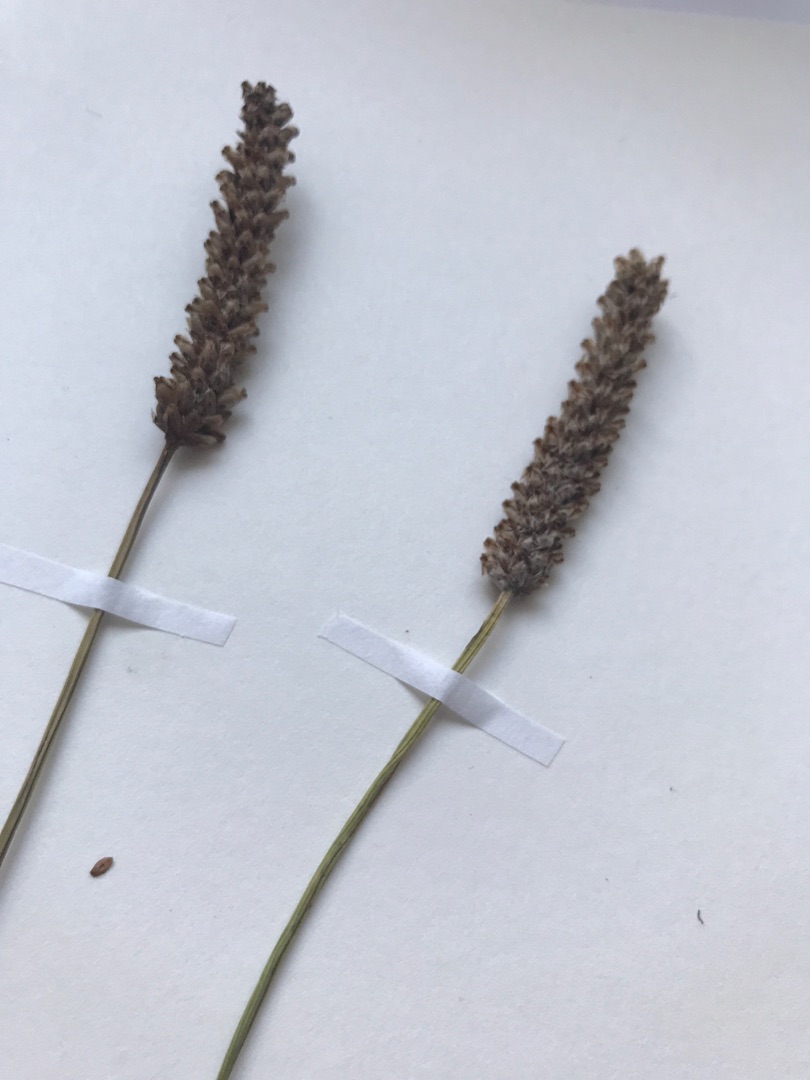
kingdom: Plantae
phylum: Tracheophyta
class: Magnoliopsida
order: Lamiales
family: Plantaginaceae
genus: Plantago
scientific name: Plantago lanceolata
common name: Lancet-vejbred
